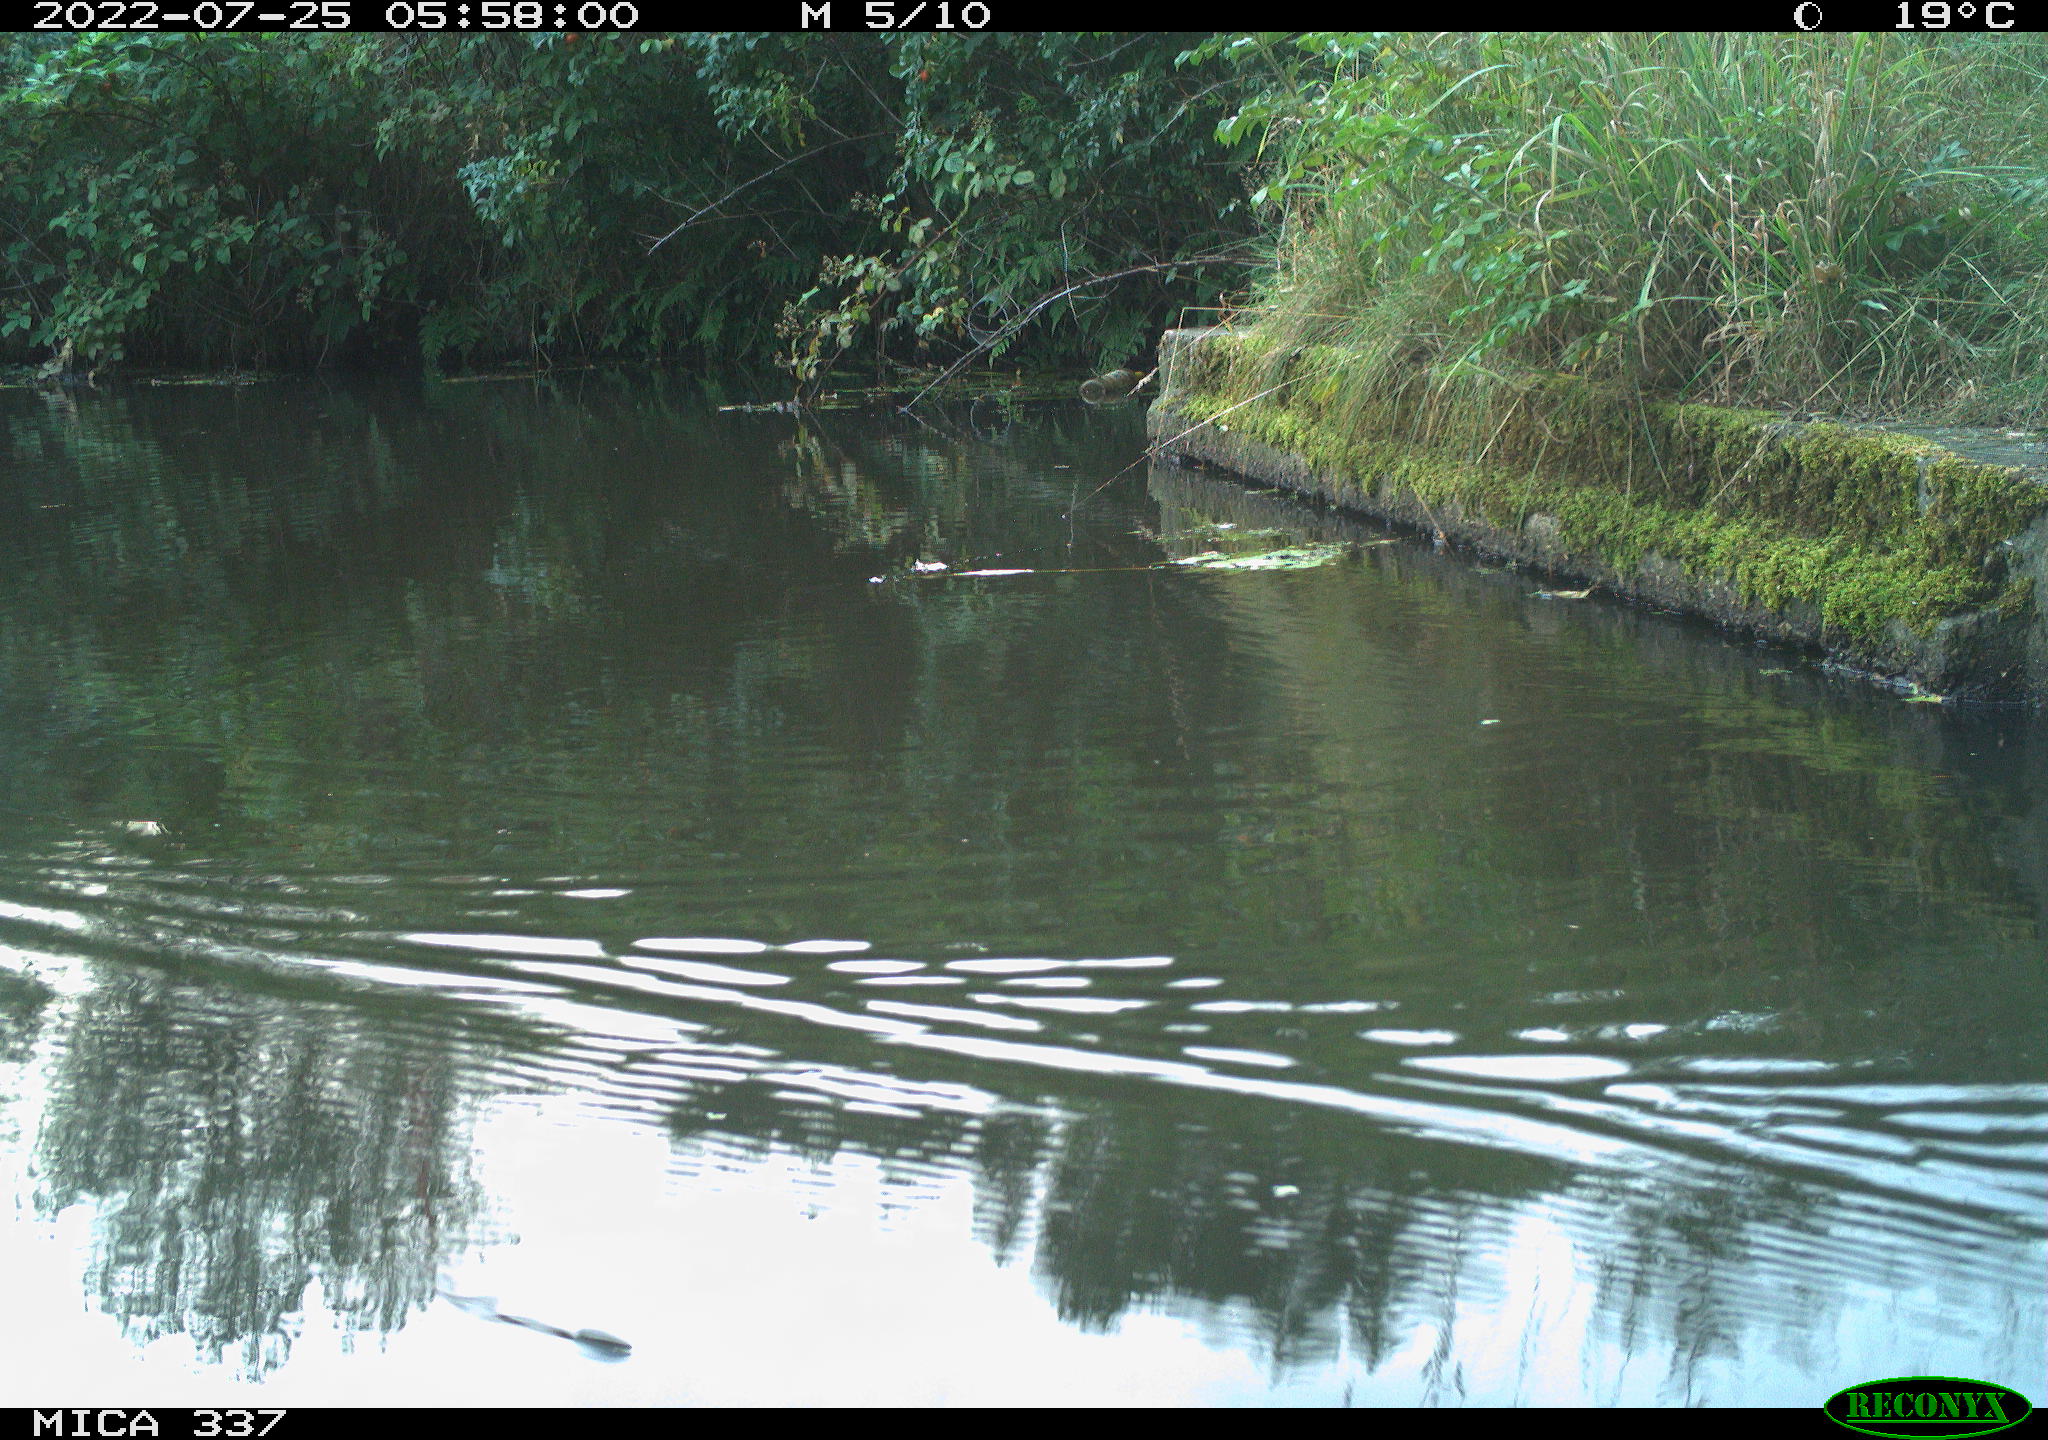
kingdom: Animalia
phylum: Chordata
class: Aves
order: Gruiformes
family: Rallidae
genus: Gallinula
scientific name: Gallinula chloropus
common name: Common moorhen
